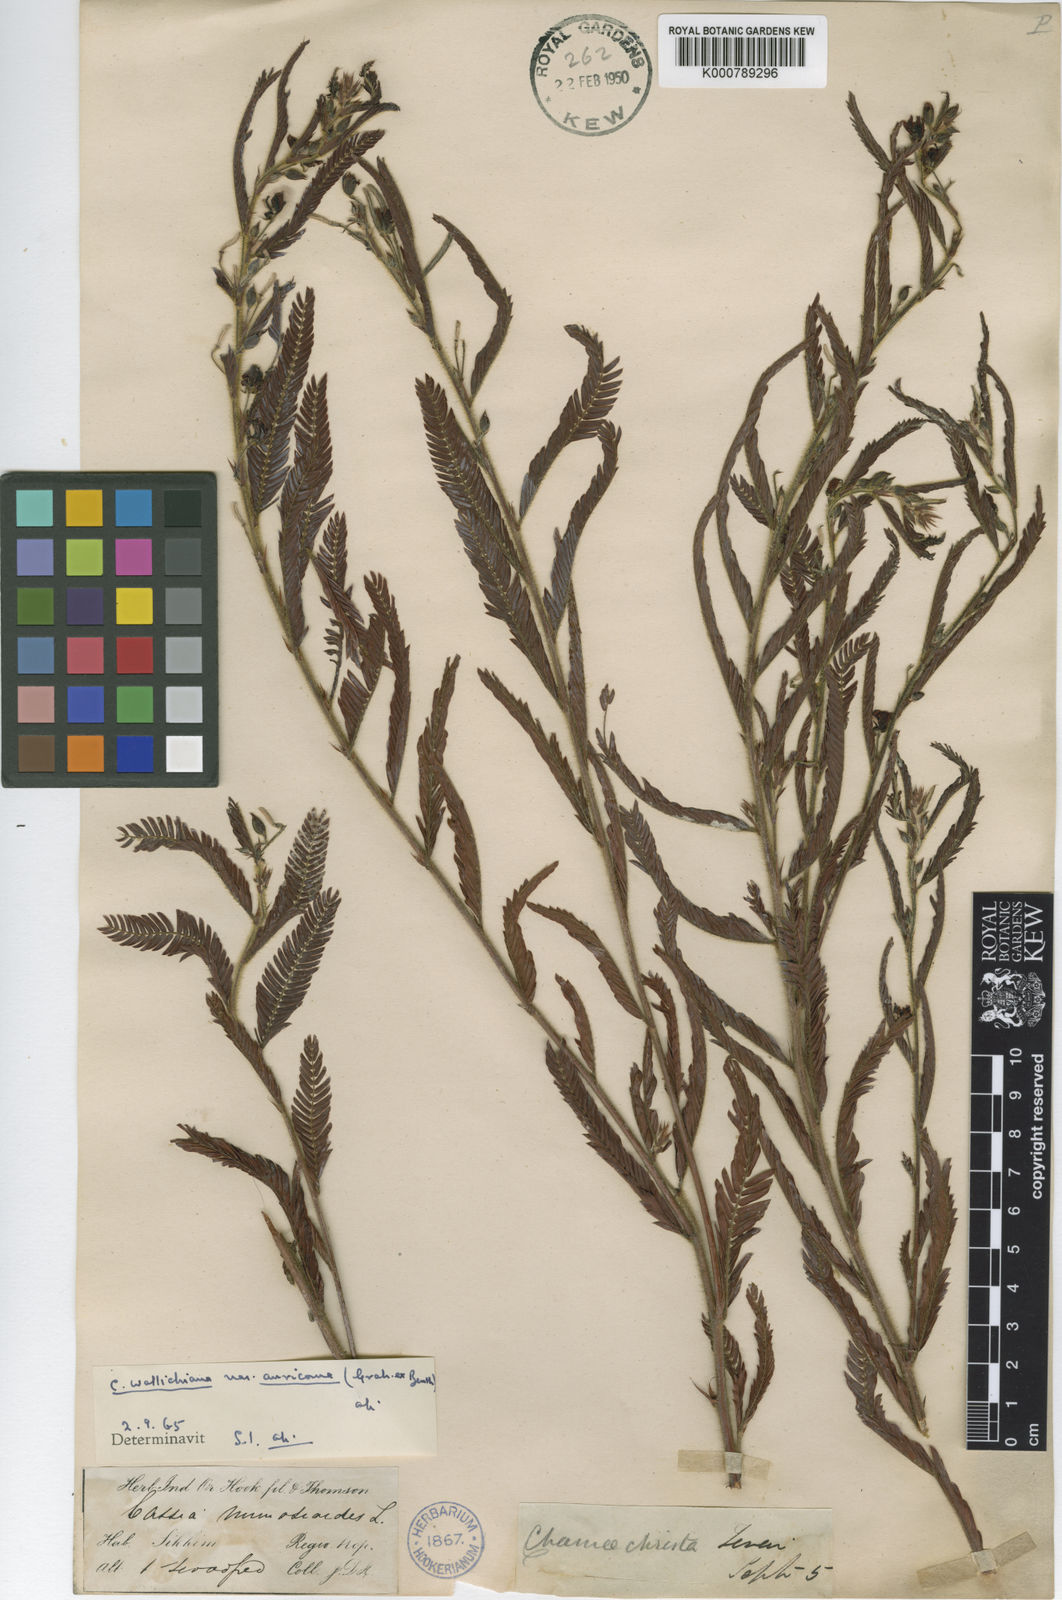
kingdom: Plantae
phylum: Tracheophyta
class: Magnoliopsida
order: Fabales
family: Fabaceae
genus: Chamaecrista
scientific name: Chamaecrista mimosoides
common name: Fish-bone cassia
